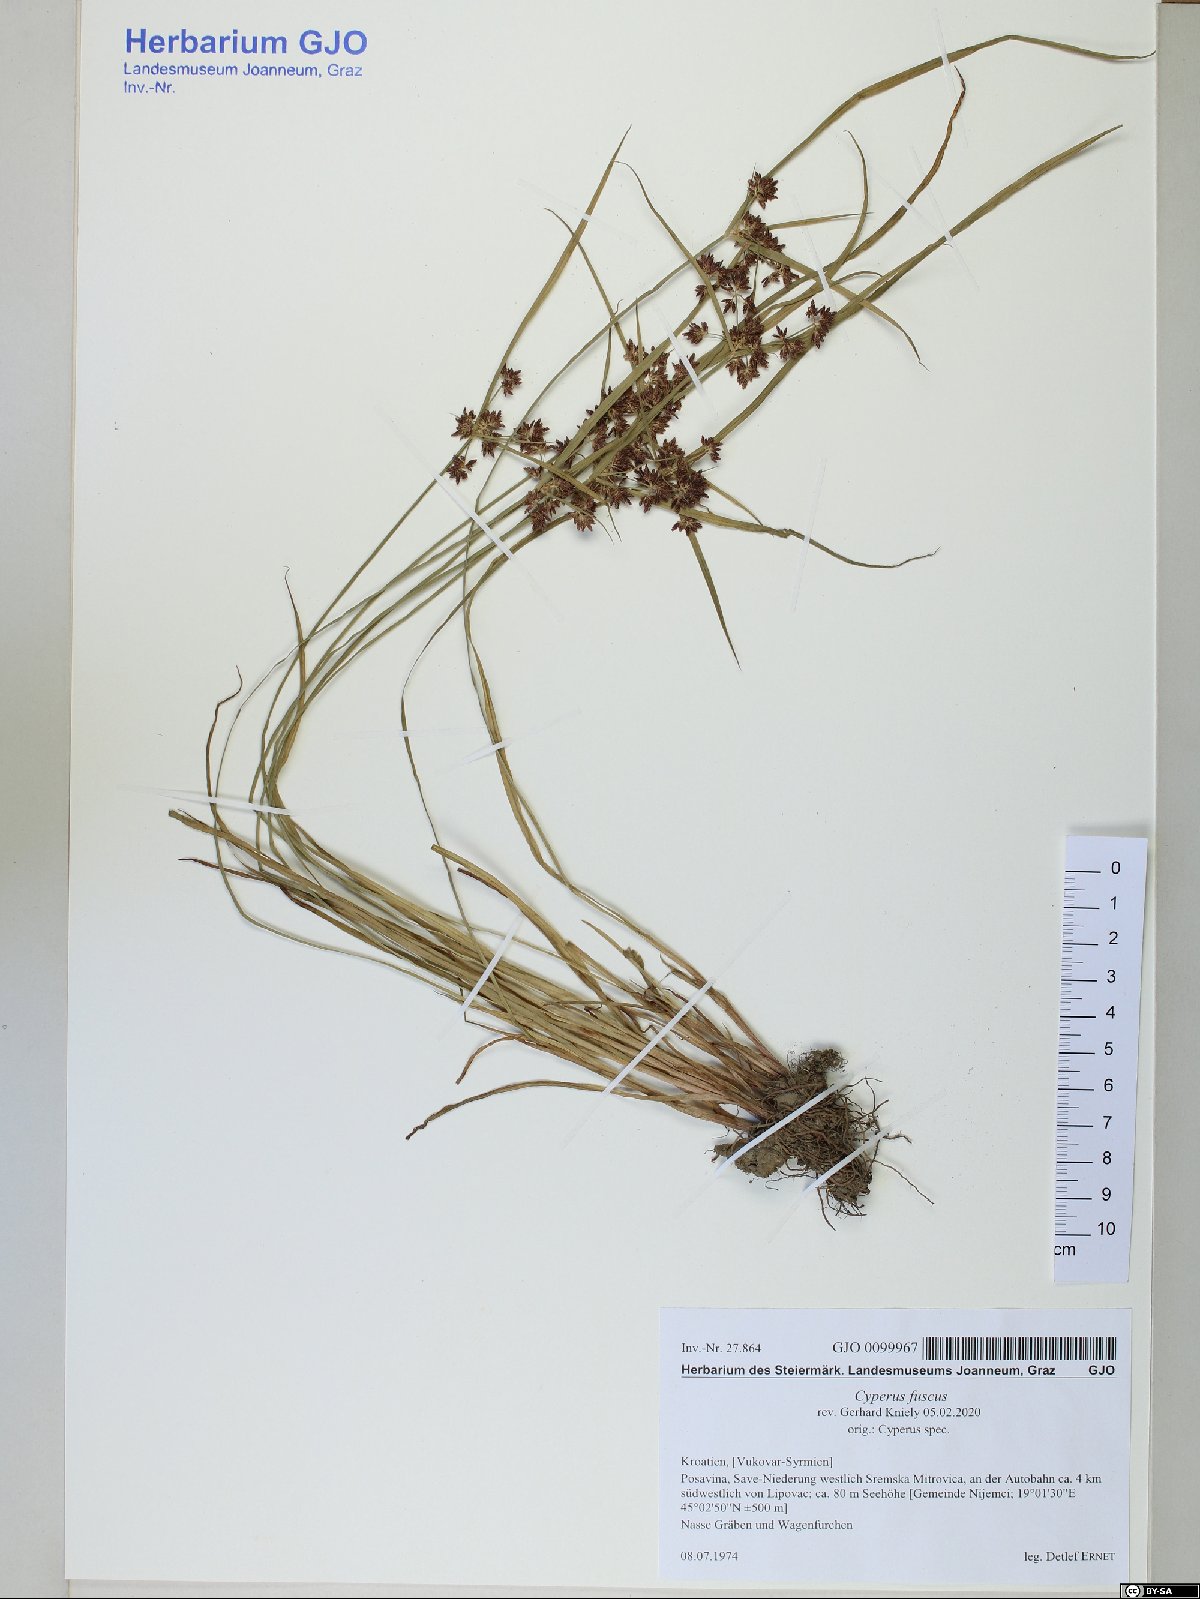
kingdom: Plantae
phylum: Tracheophyta
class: Liliopsida
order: Poales
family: Cyperaceae
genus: Cyperus
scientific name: Cyperus fuscus
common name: Brown galingale
